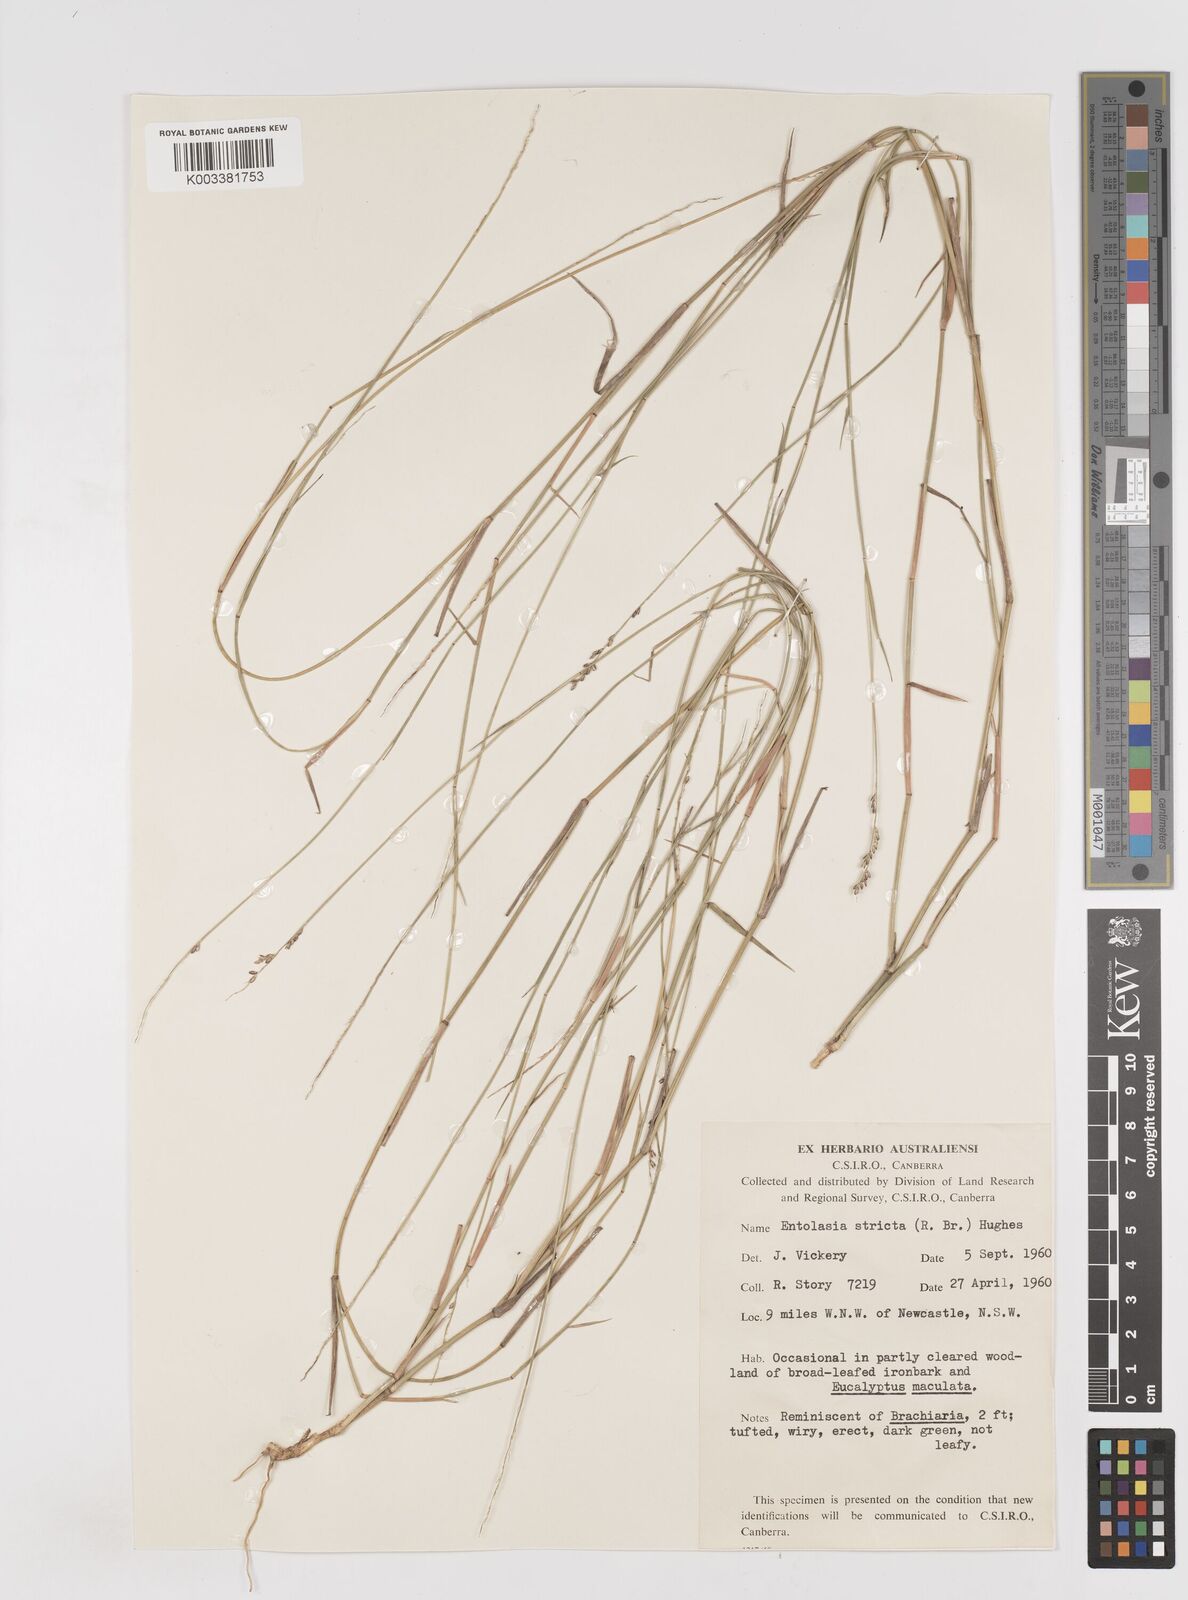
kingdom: Plantae
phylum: Tracheophyta
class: Liliopsida
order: Poales
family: Poaceae
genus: Entolasia
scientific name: Entolasia stricta
